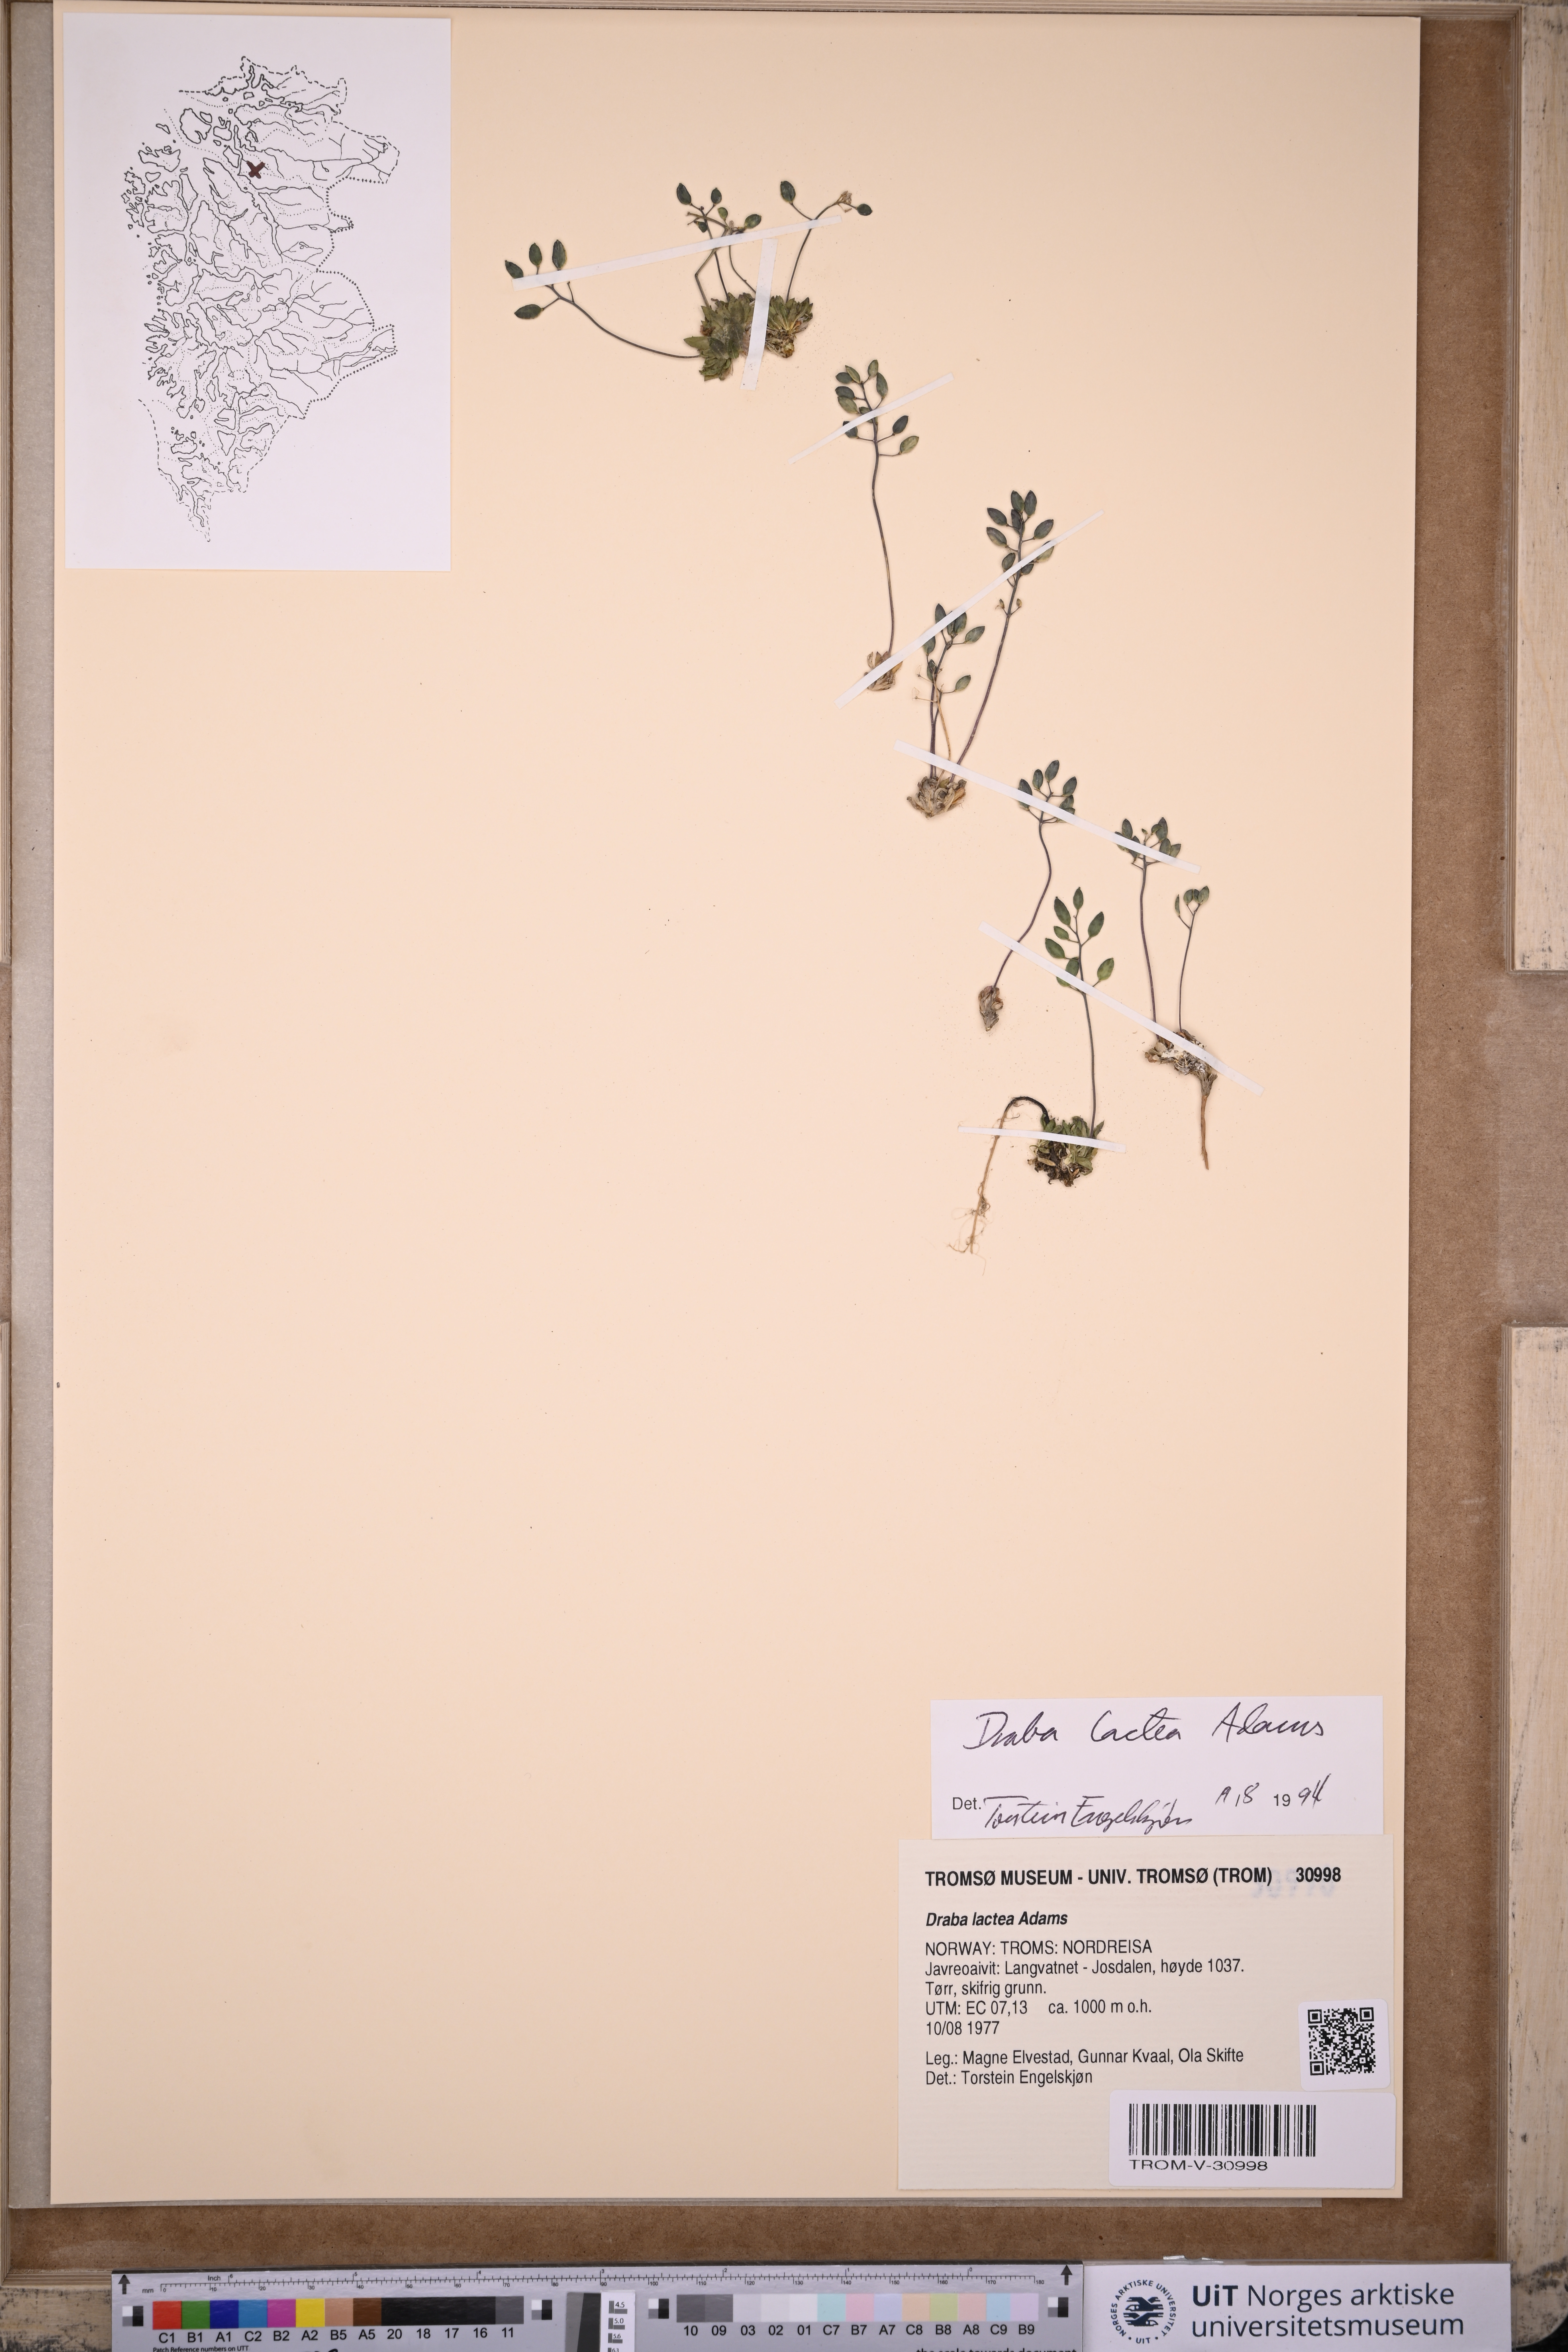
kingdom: Plantae
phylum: Tracheophyta
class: Magnoliopsida
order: Brassicales
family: Brassicaceae
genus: Draba
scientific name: Draba lactea
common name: Milky draba
